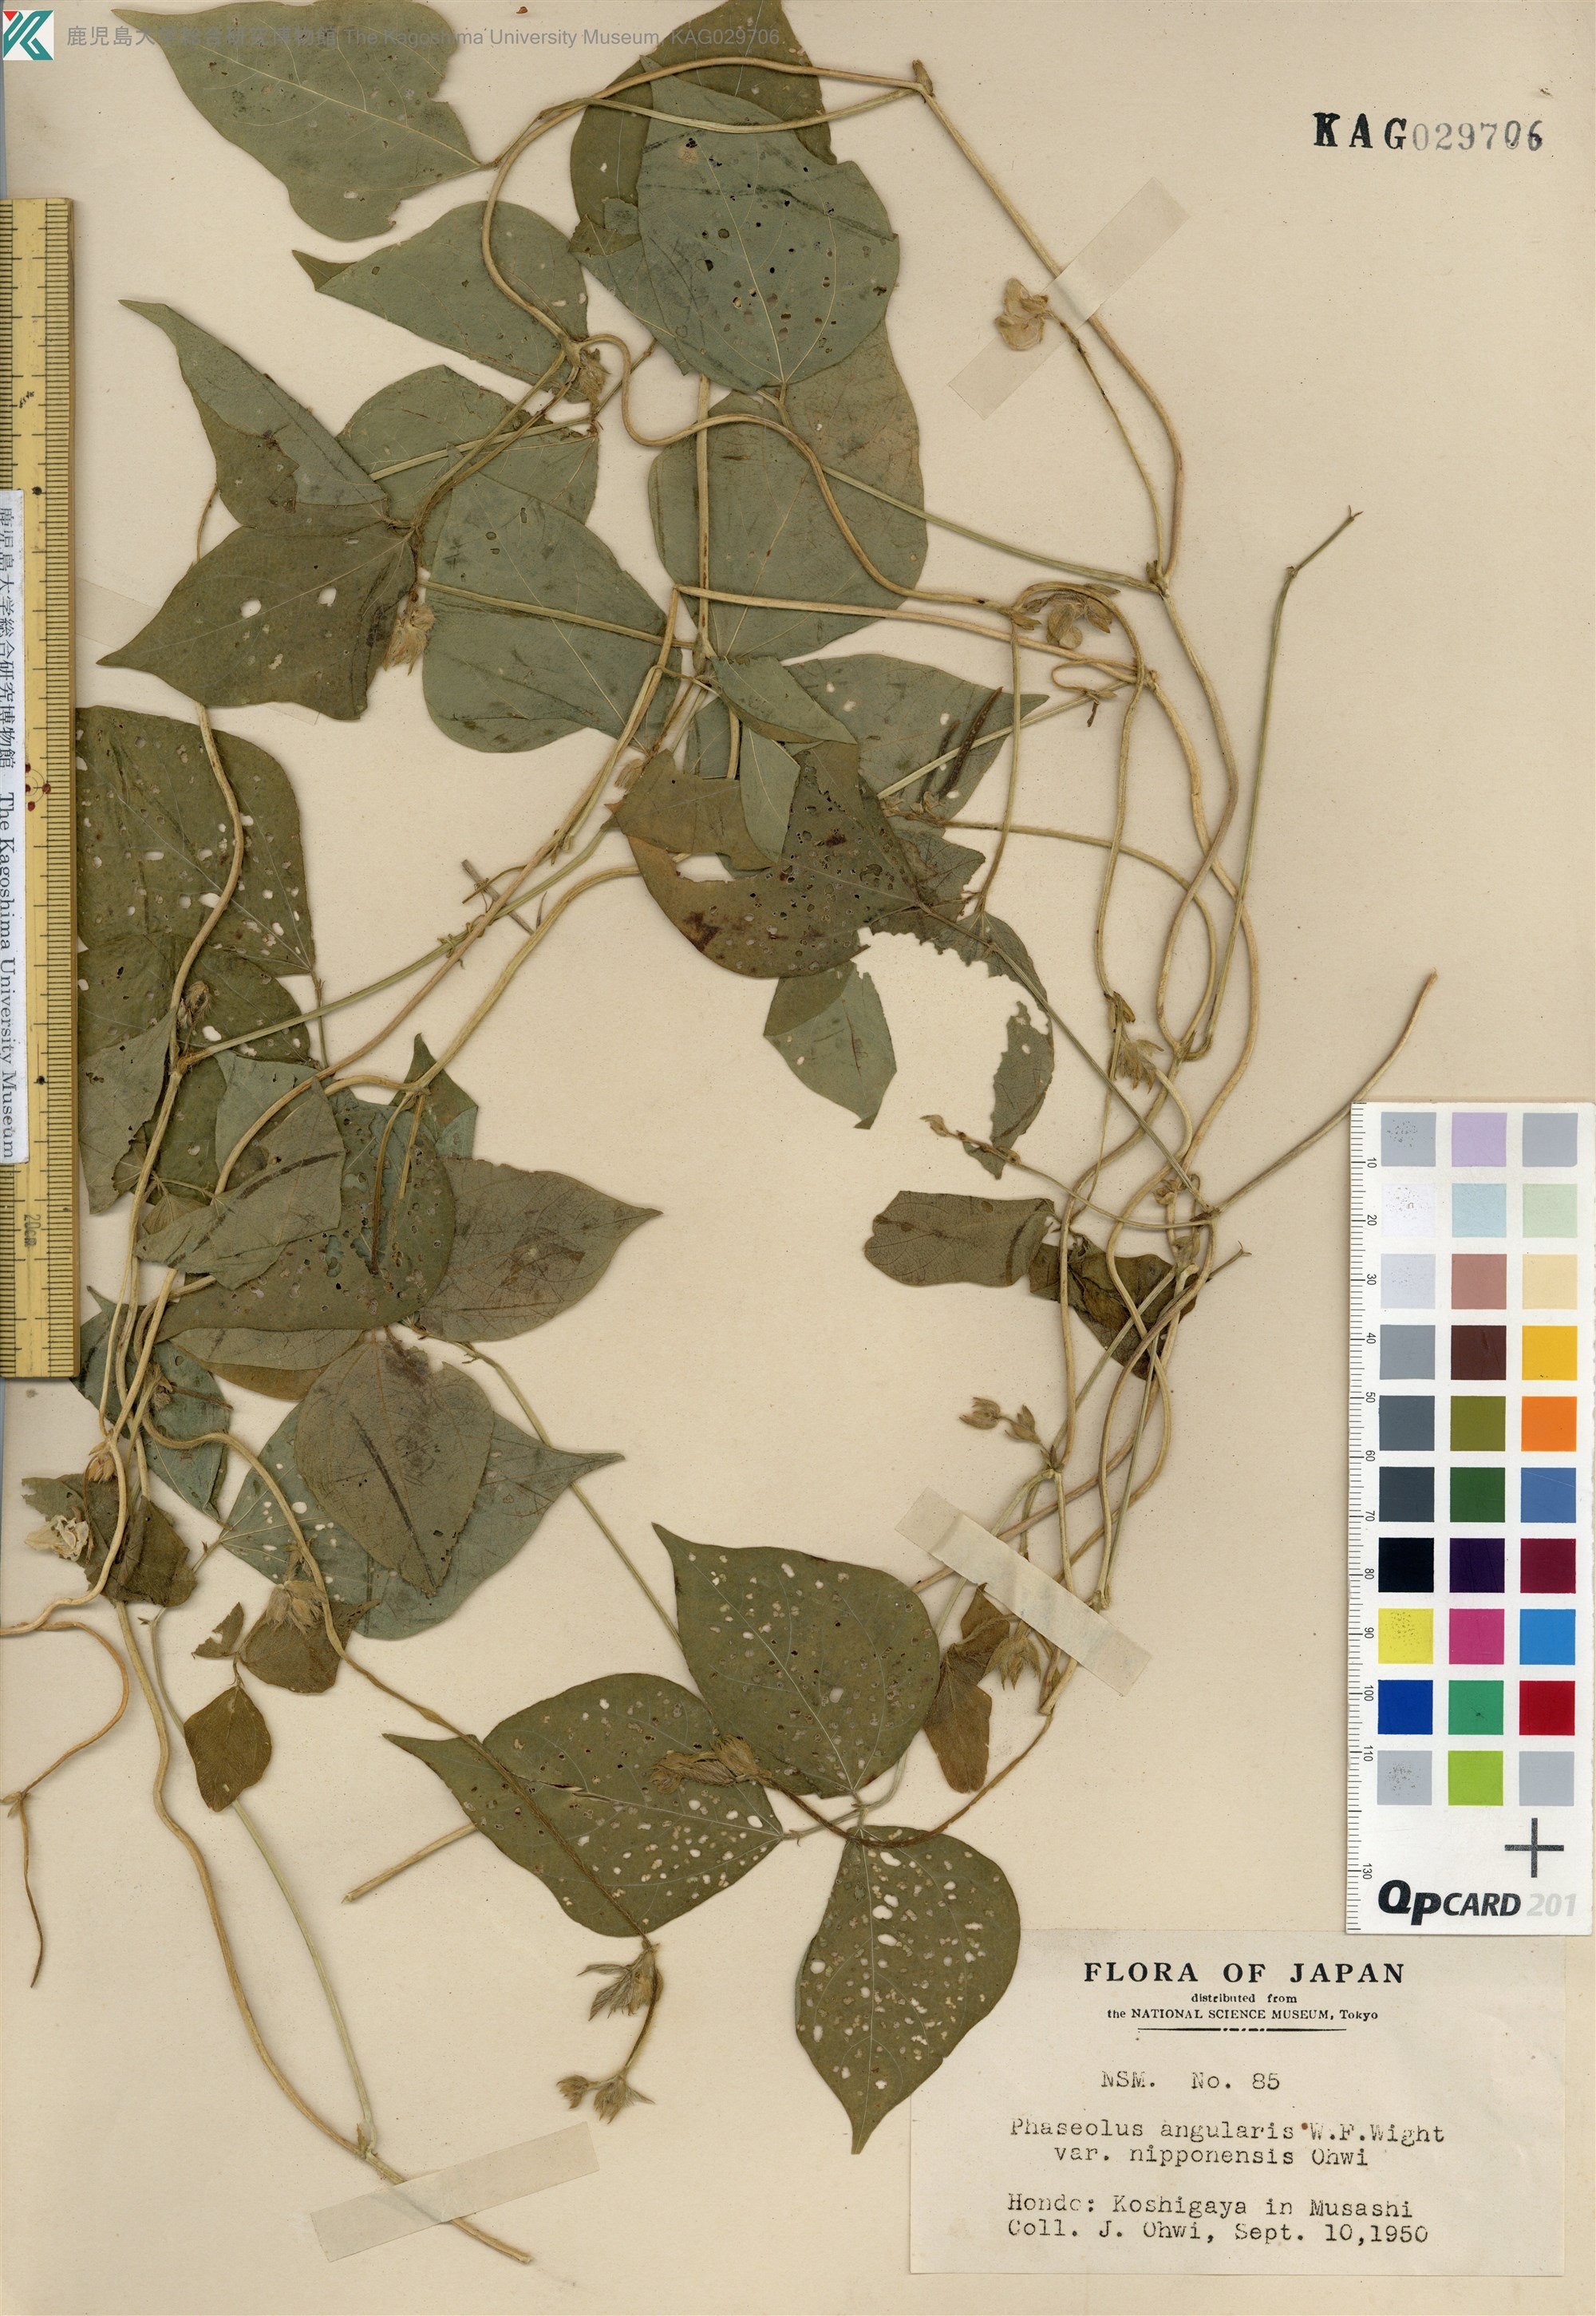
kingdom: Plantae
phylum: Tracheophyta
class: Magnoliopsida
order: Fabales
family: Fabaceae
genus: Vigna
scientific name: Vigna angularis
